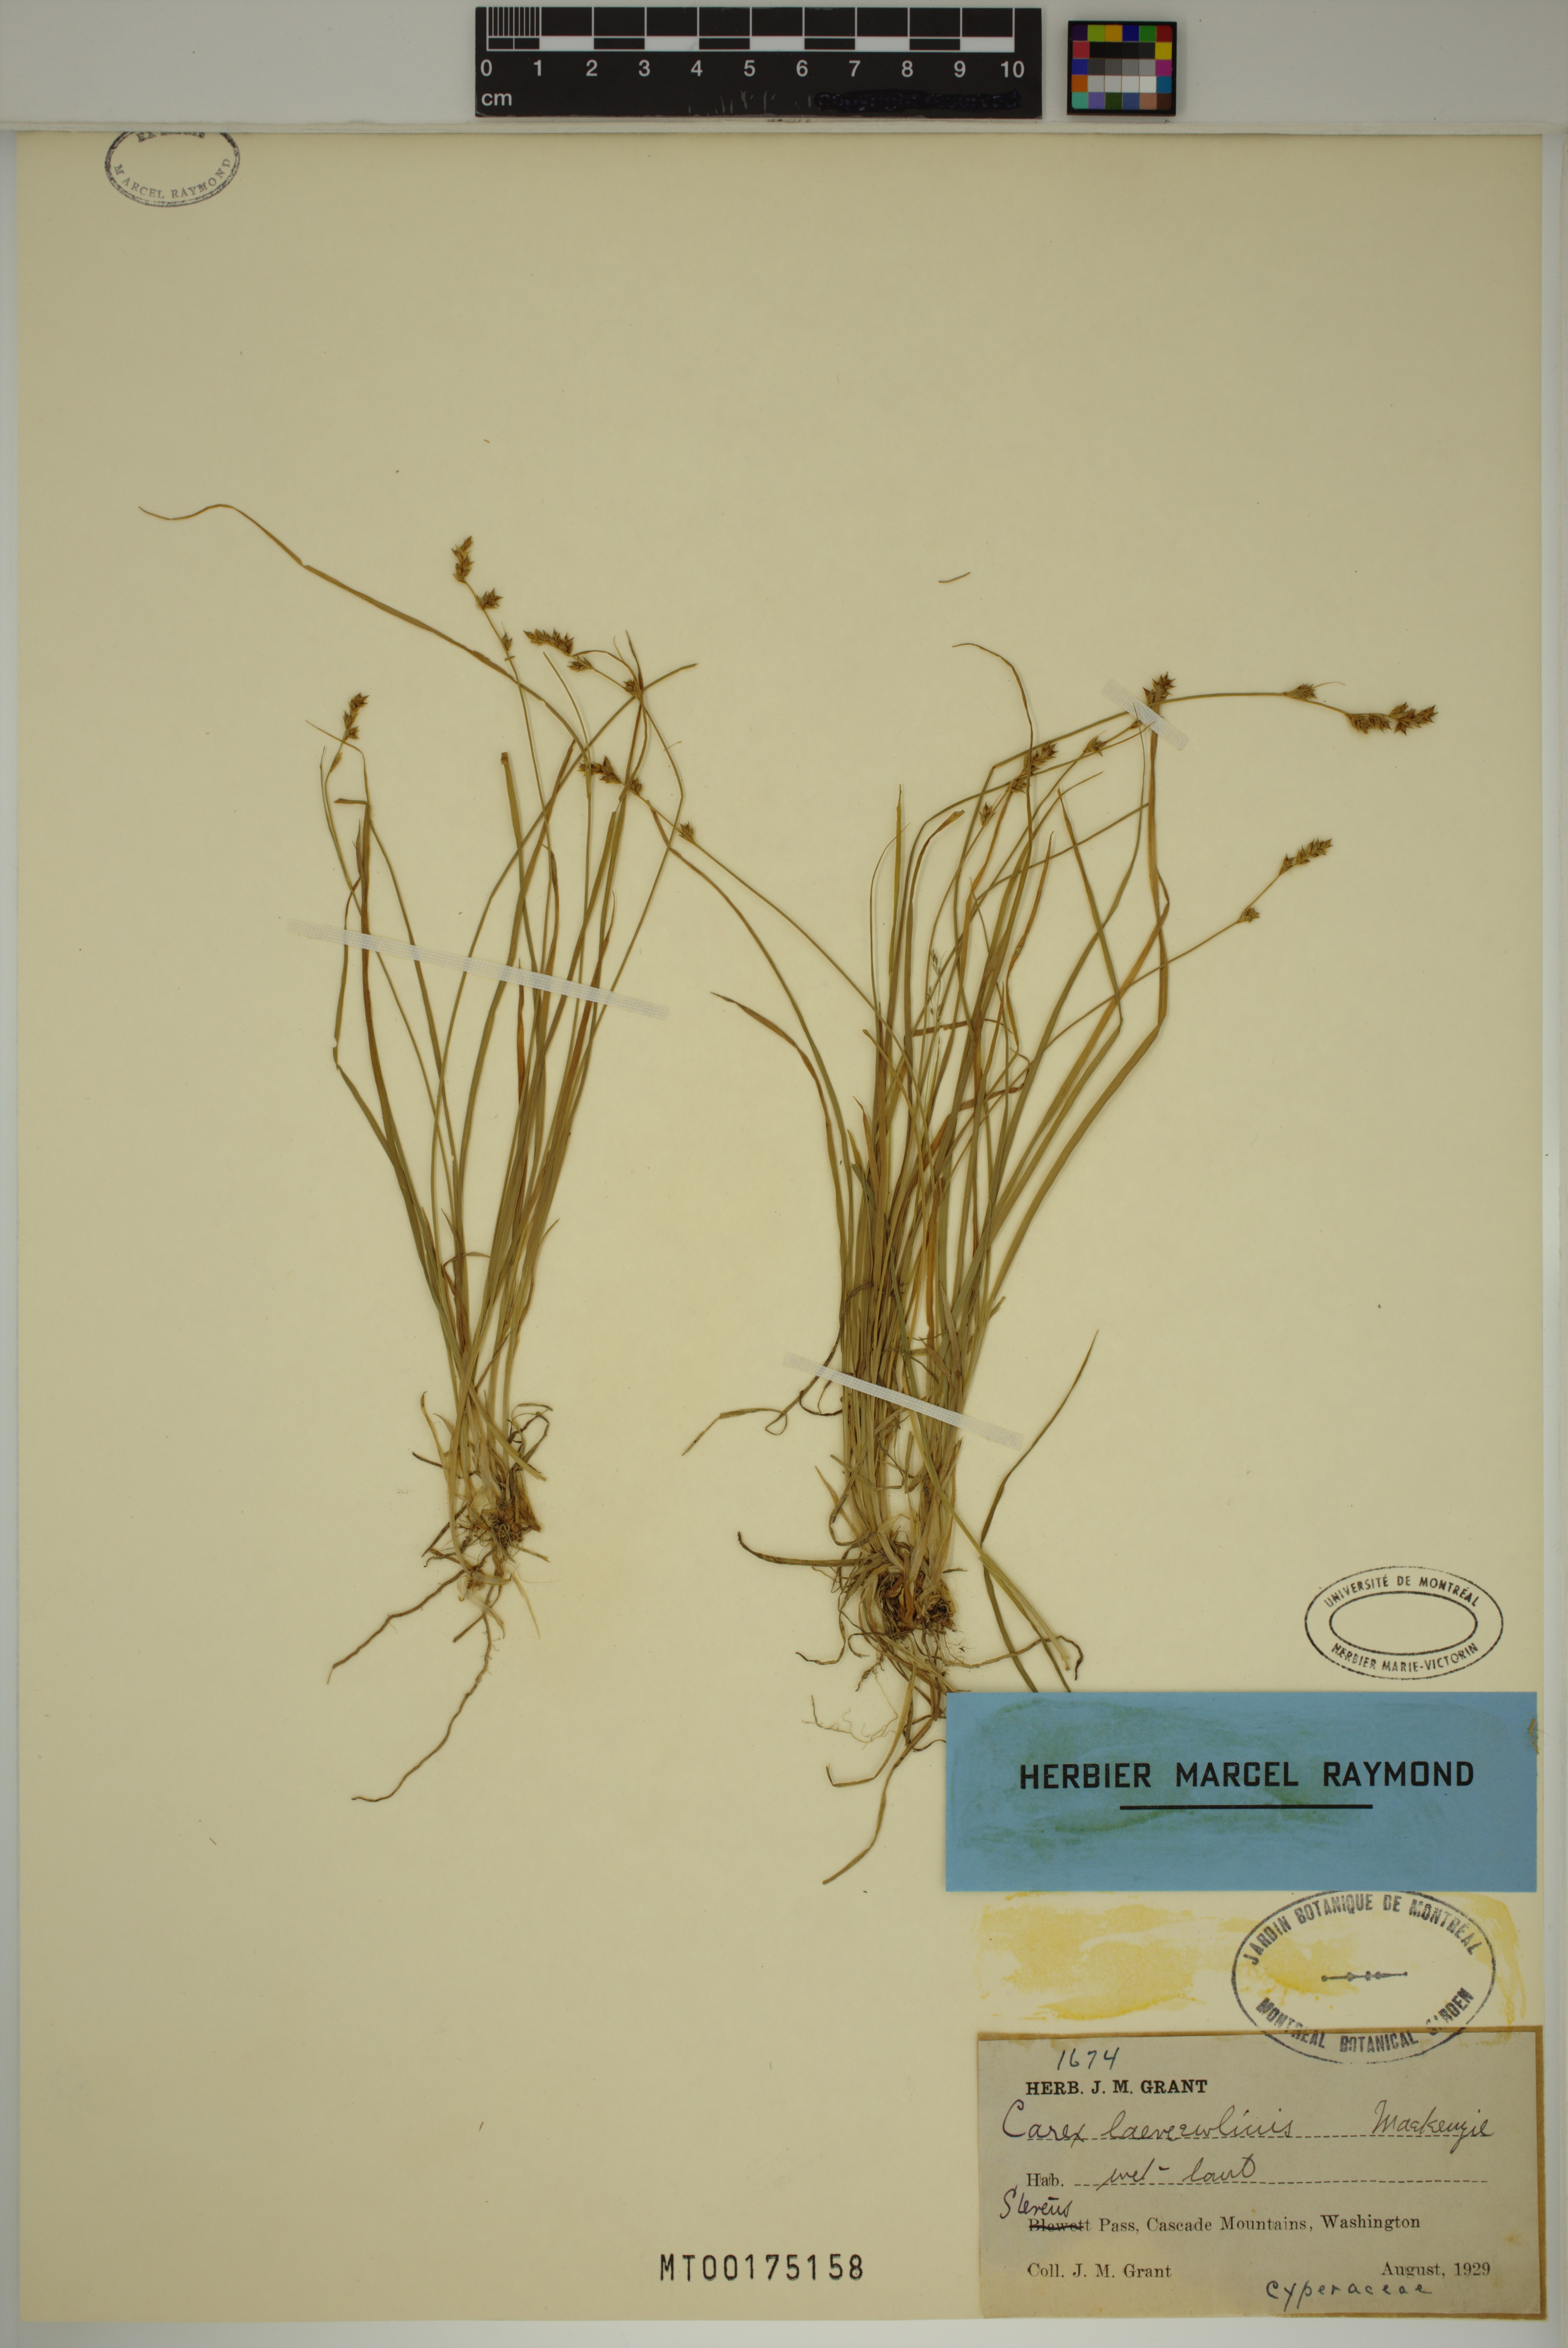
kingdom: Plantae
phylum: Tracheophyta
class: Liliopsida
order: Poales
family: Cyperaceae
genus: Carex
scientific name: Carex laeviculmis
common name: Smooth sedge
